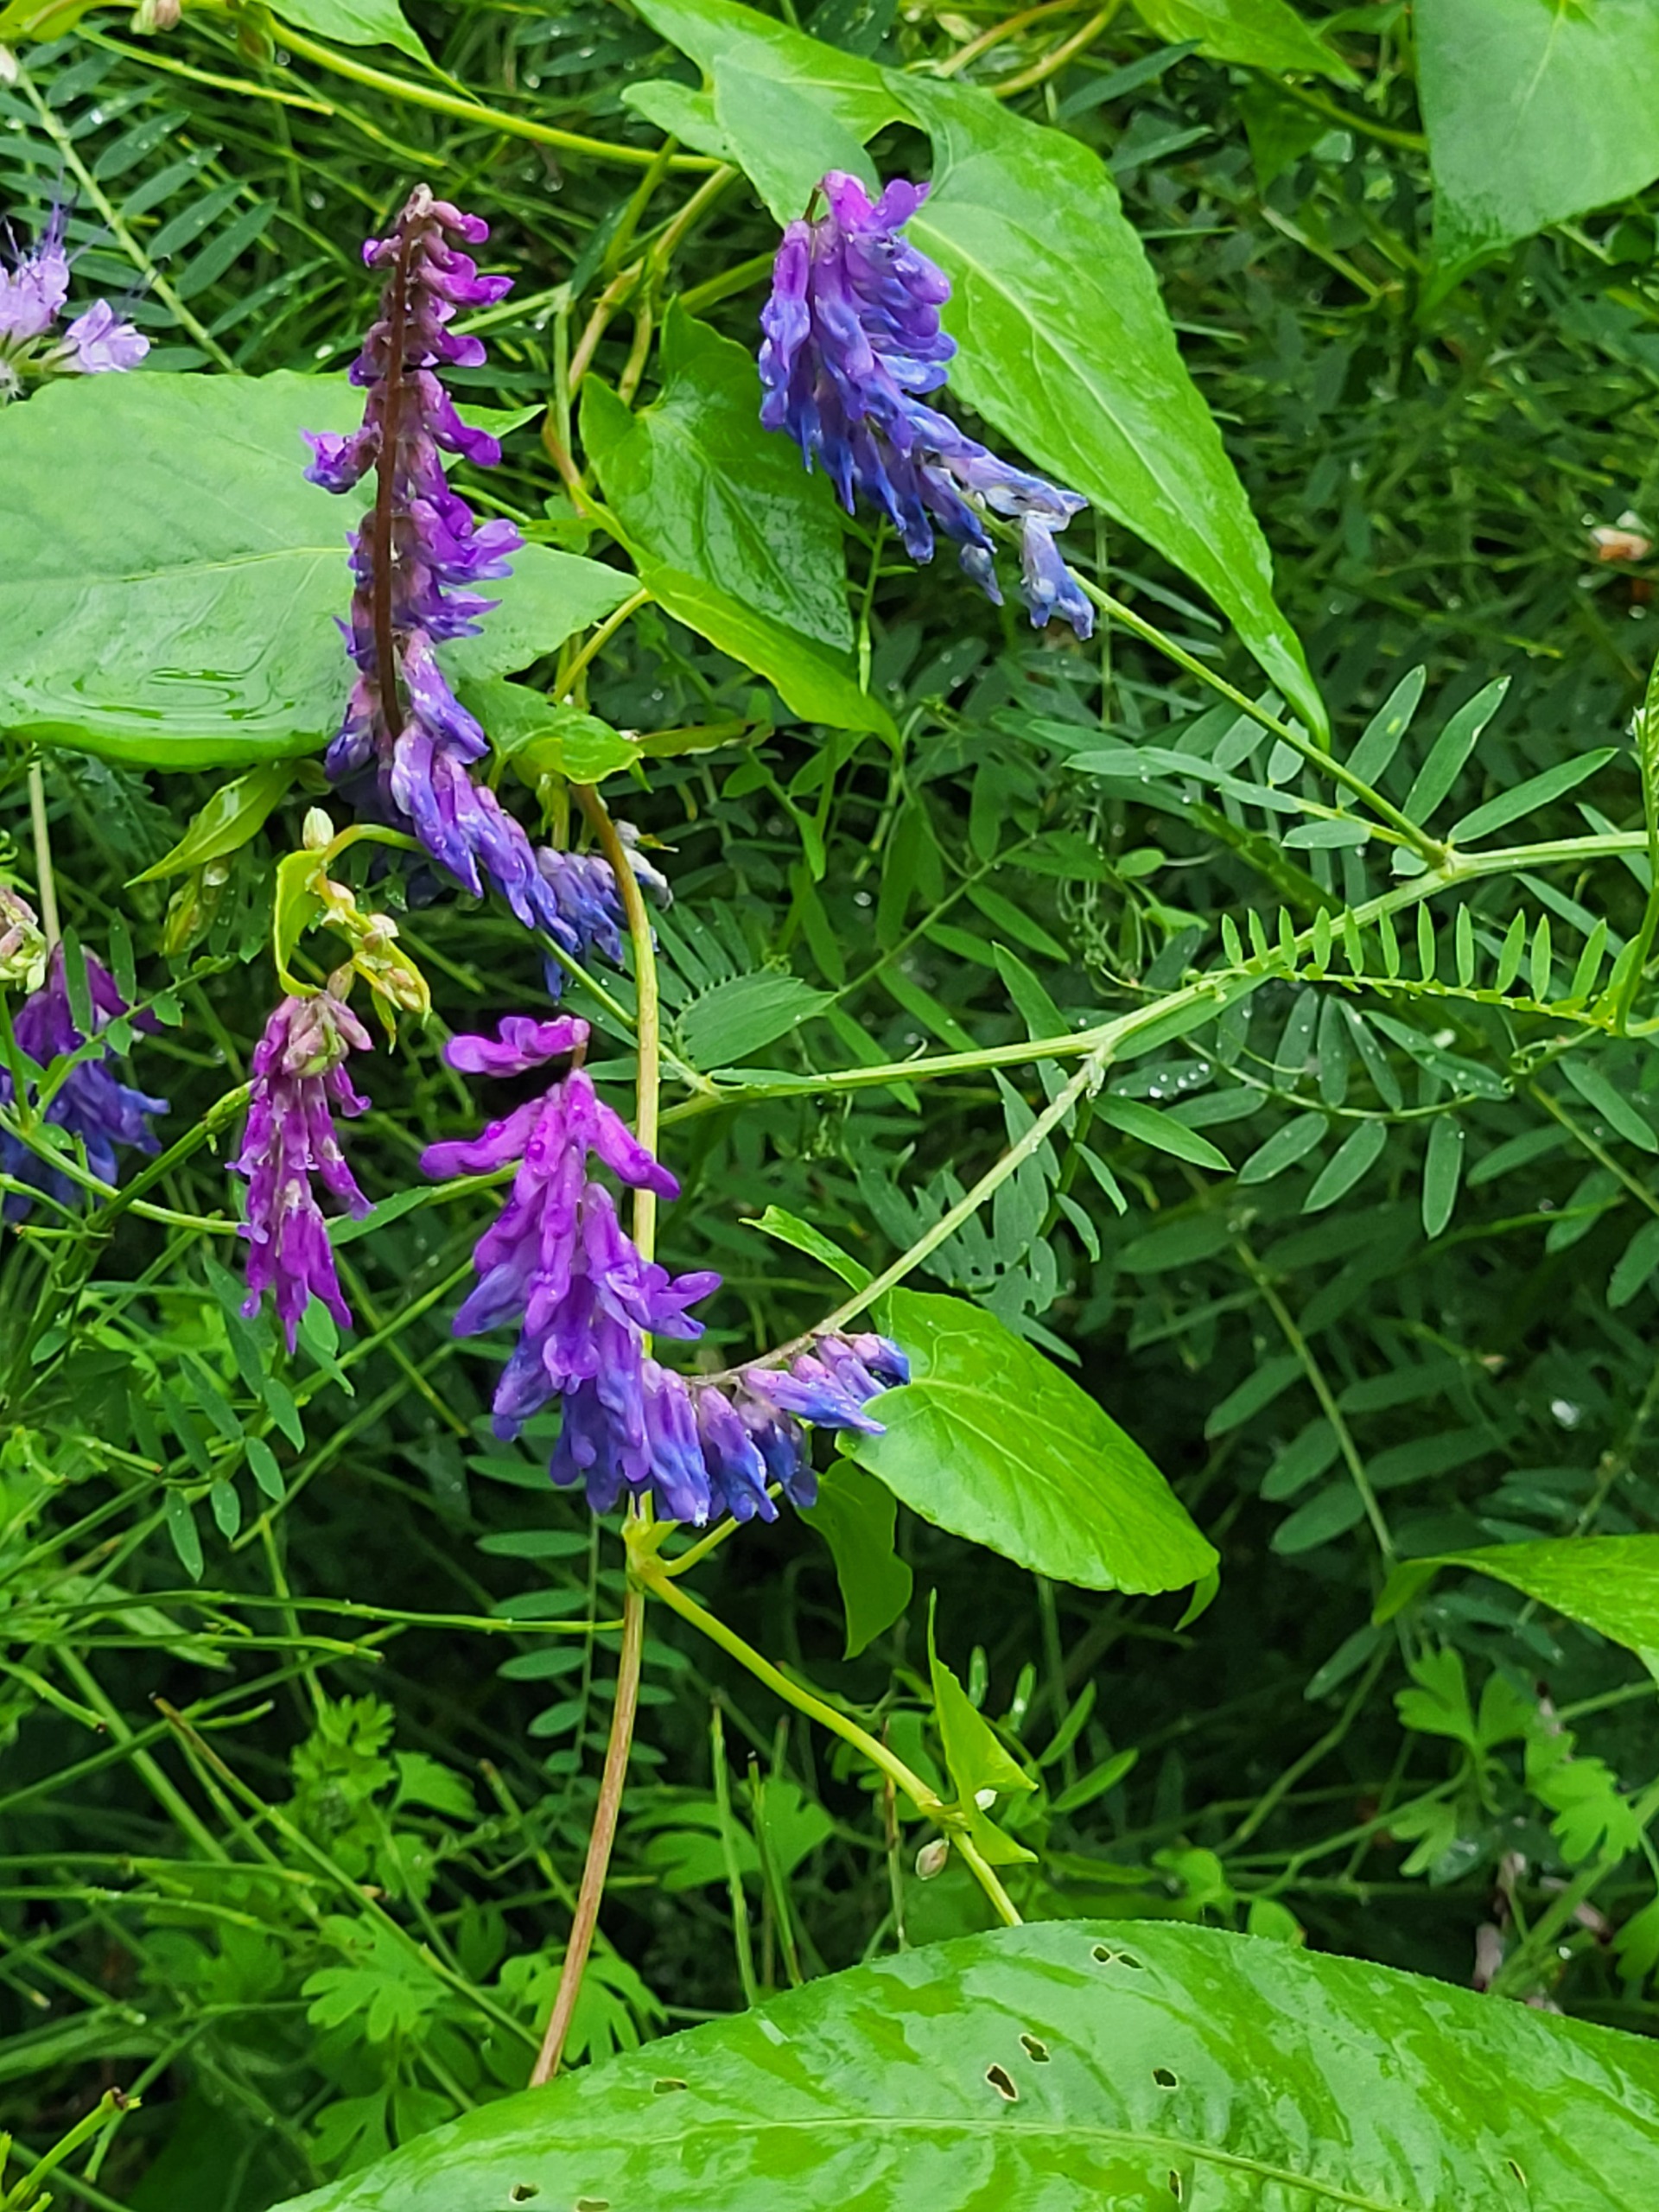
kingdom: Plantae
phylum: Tracheophyta
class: Magnoliopsida
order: Fabales
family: Fabaceae
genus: Vicia
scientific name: Vicia cracca
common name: Muse-vikke
